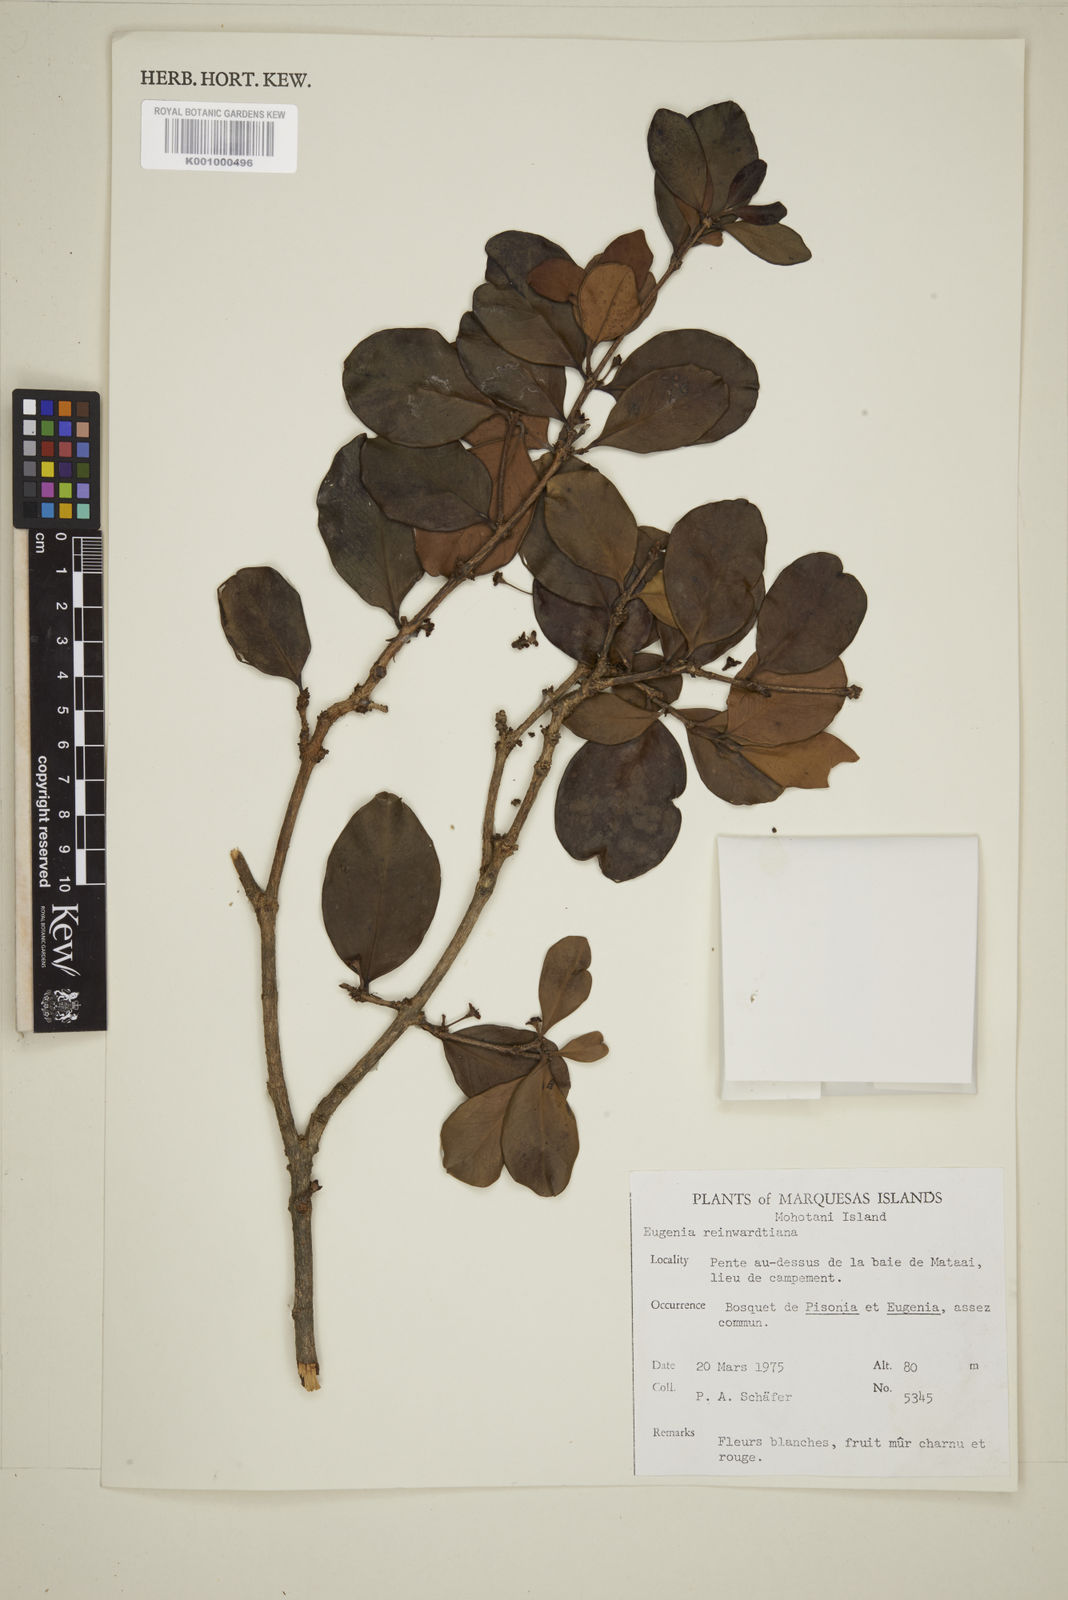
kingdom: Plantae
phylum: Tracheophyta
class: Magnoliopsida
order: Myrtales
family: Myrtaceae
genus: Eugenia
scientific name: Eugenia reinwardtiana
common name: Cedar bay-cherry
